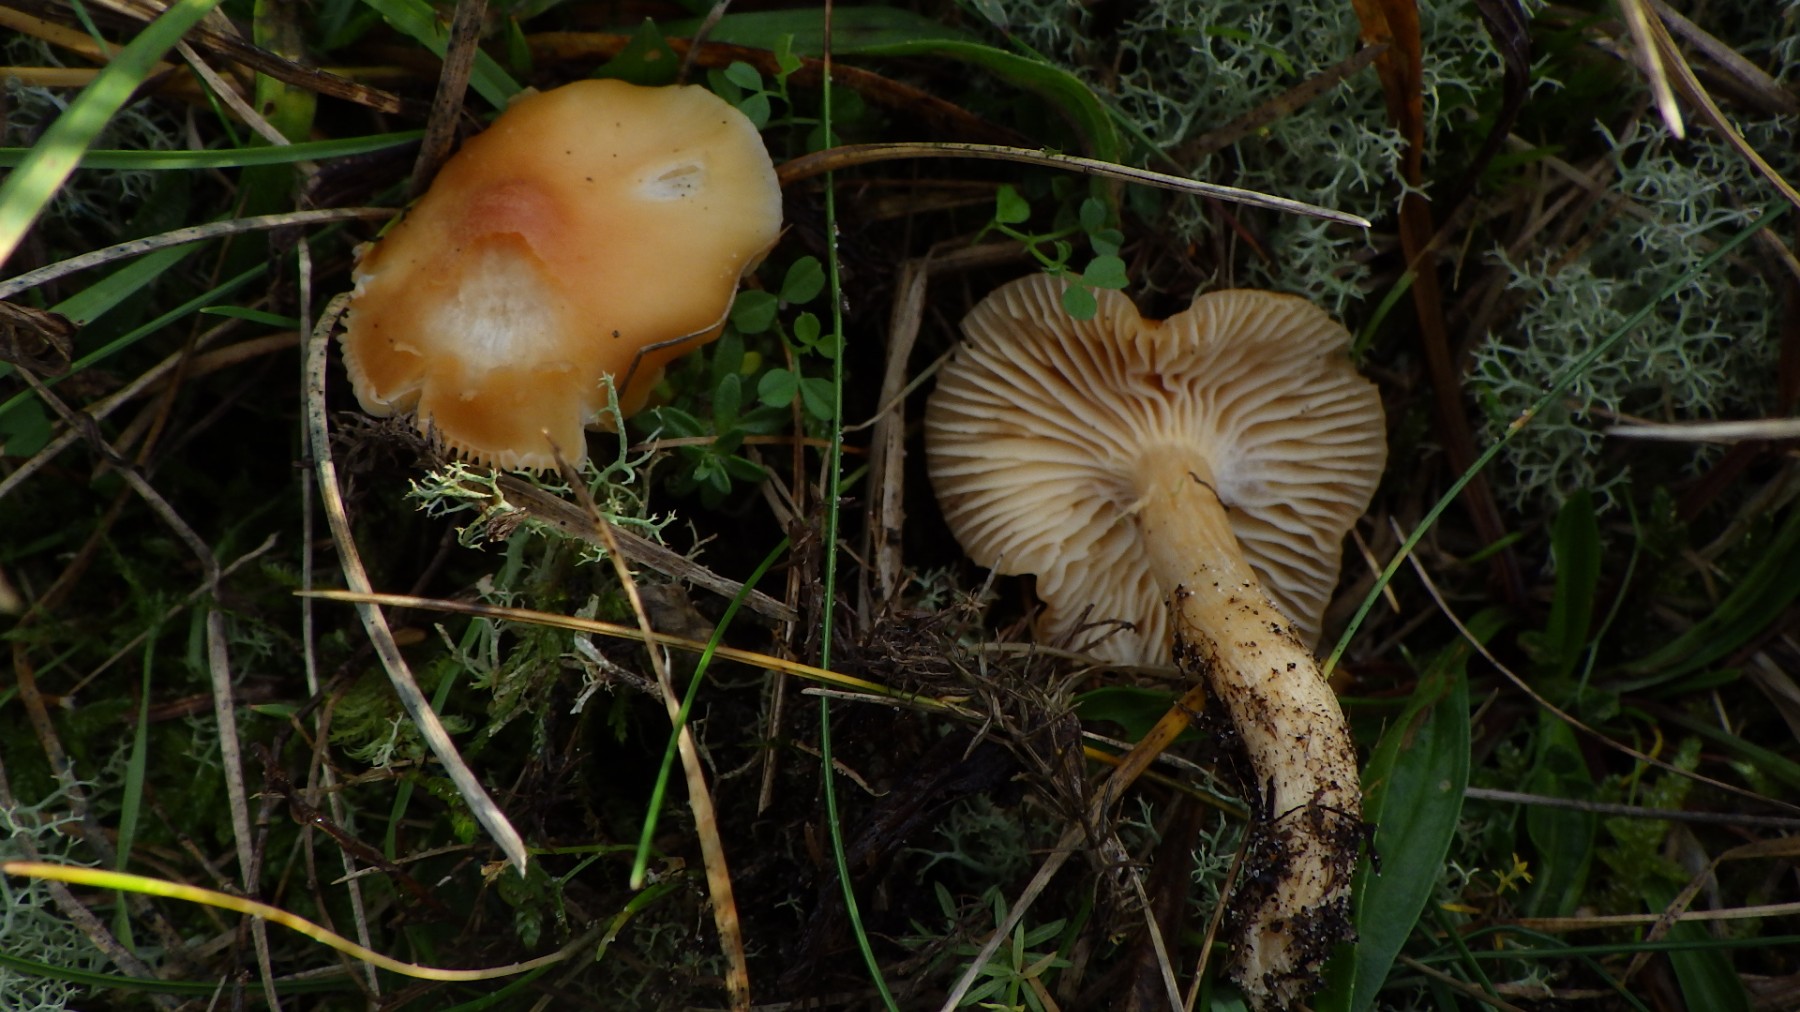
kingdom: Fungi
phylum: Basidiomycota
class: Agaricomycetes
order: Agaricales
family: Hygrophoraceae
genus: Cuphophyllus
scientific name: Cuphophyllus pratensis
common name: eng-vokshat
